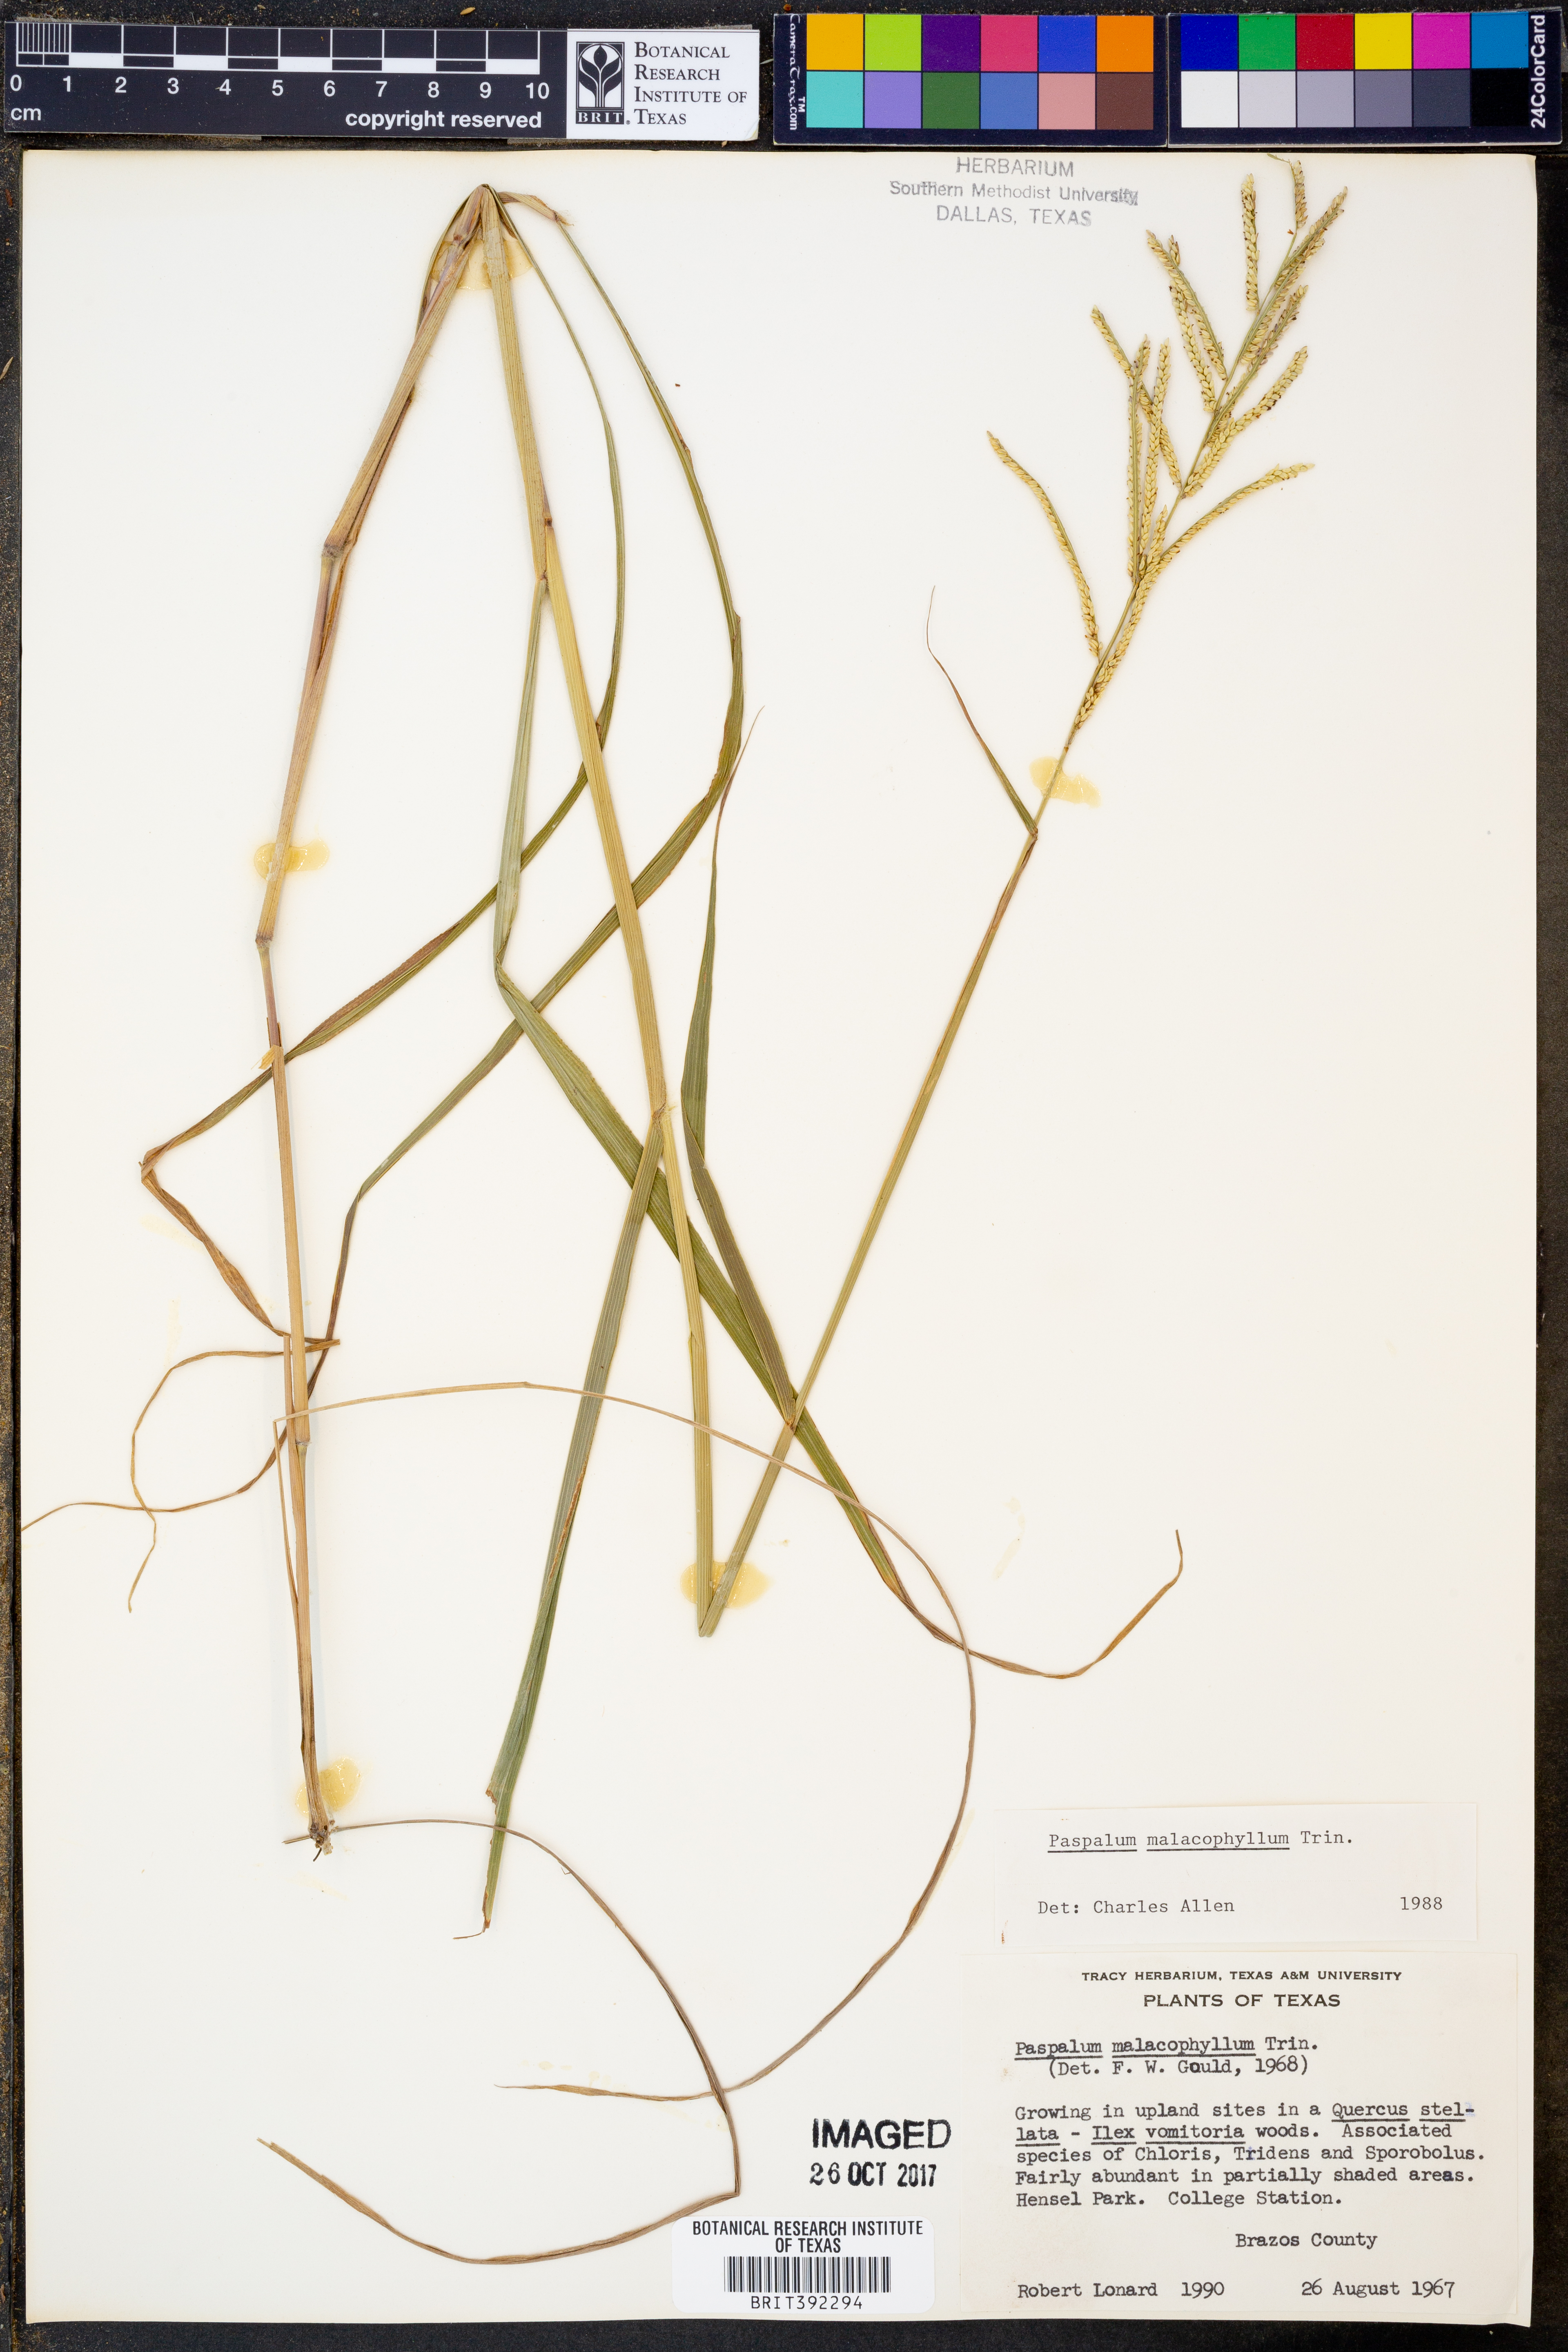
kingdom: Plantae
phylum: Tracheophyta
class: Liliopsida
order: Poales
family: Poaceae
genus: Paspalum
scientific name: Paspalum malacophyllum
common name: Ribbed paspalum
